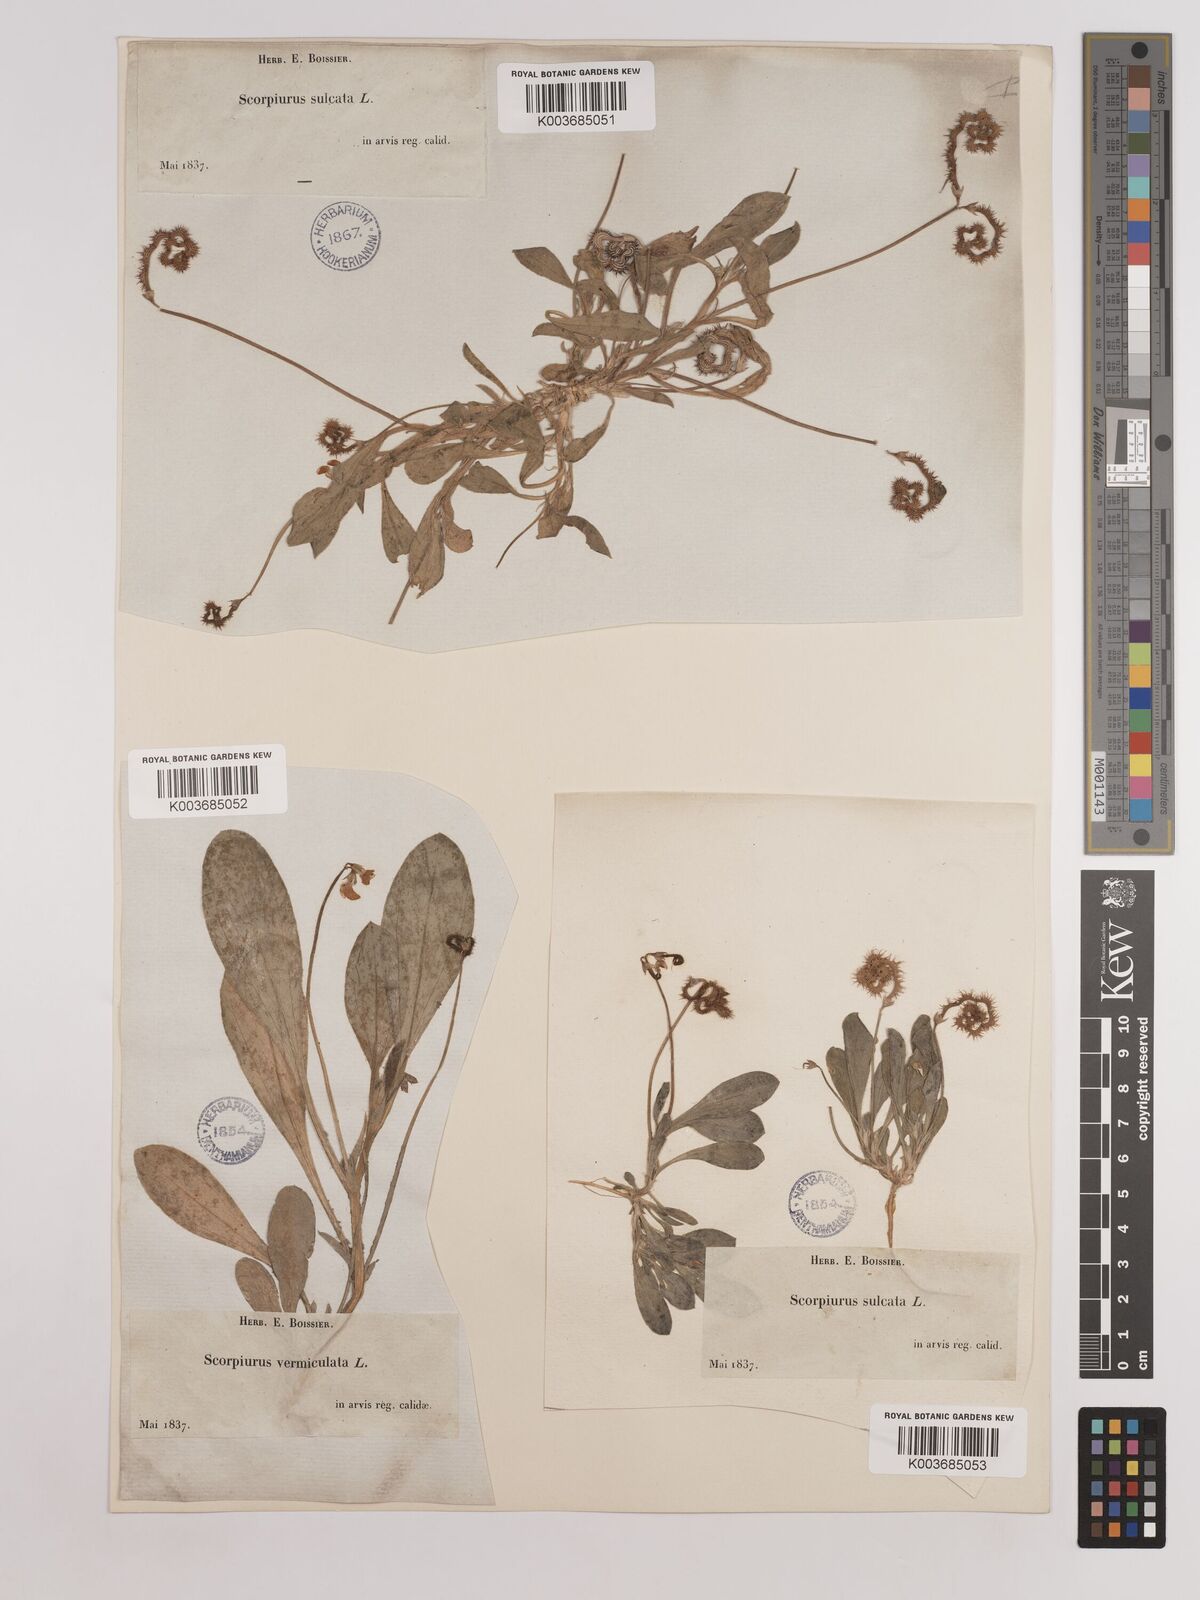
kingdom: Plantae
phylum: Tracheophyta
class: Magnoliopsida
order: Fabales
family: Fabaceae
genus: Scorpiurus
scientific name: Scorpiurus muricatus
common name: Caterpillar-plant
